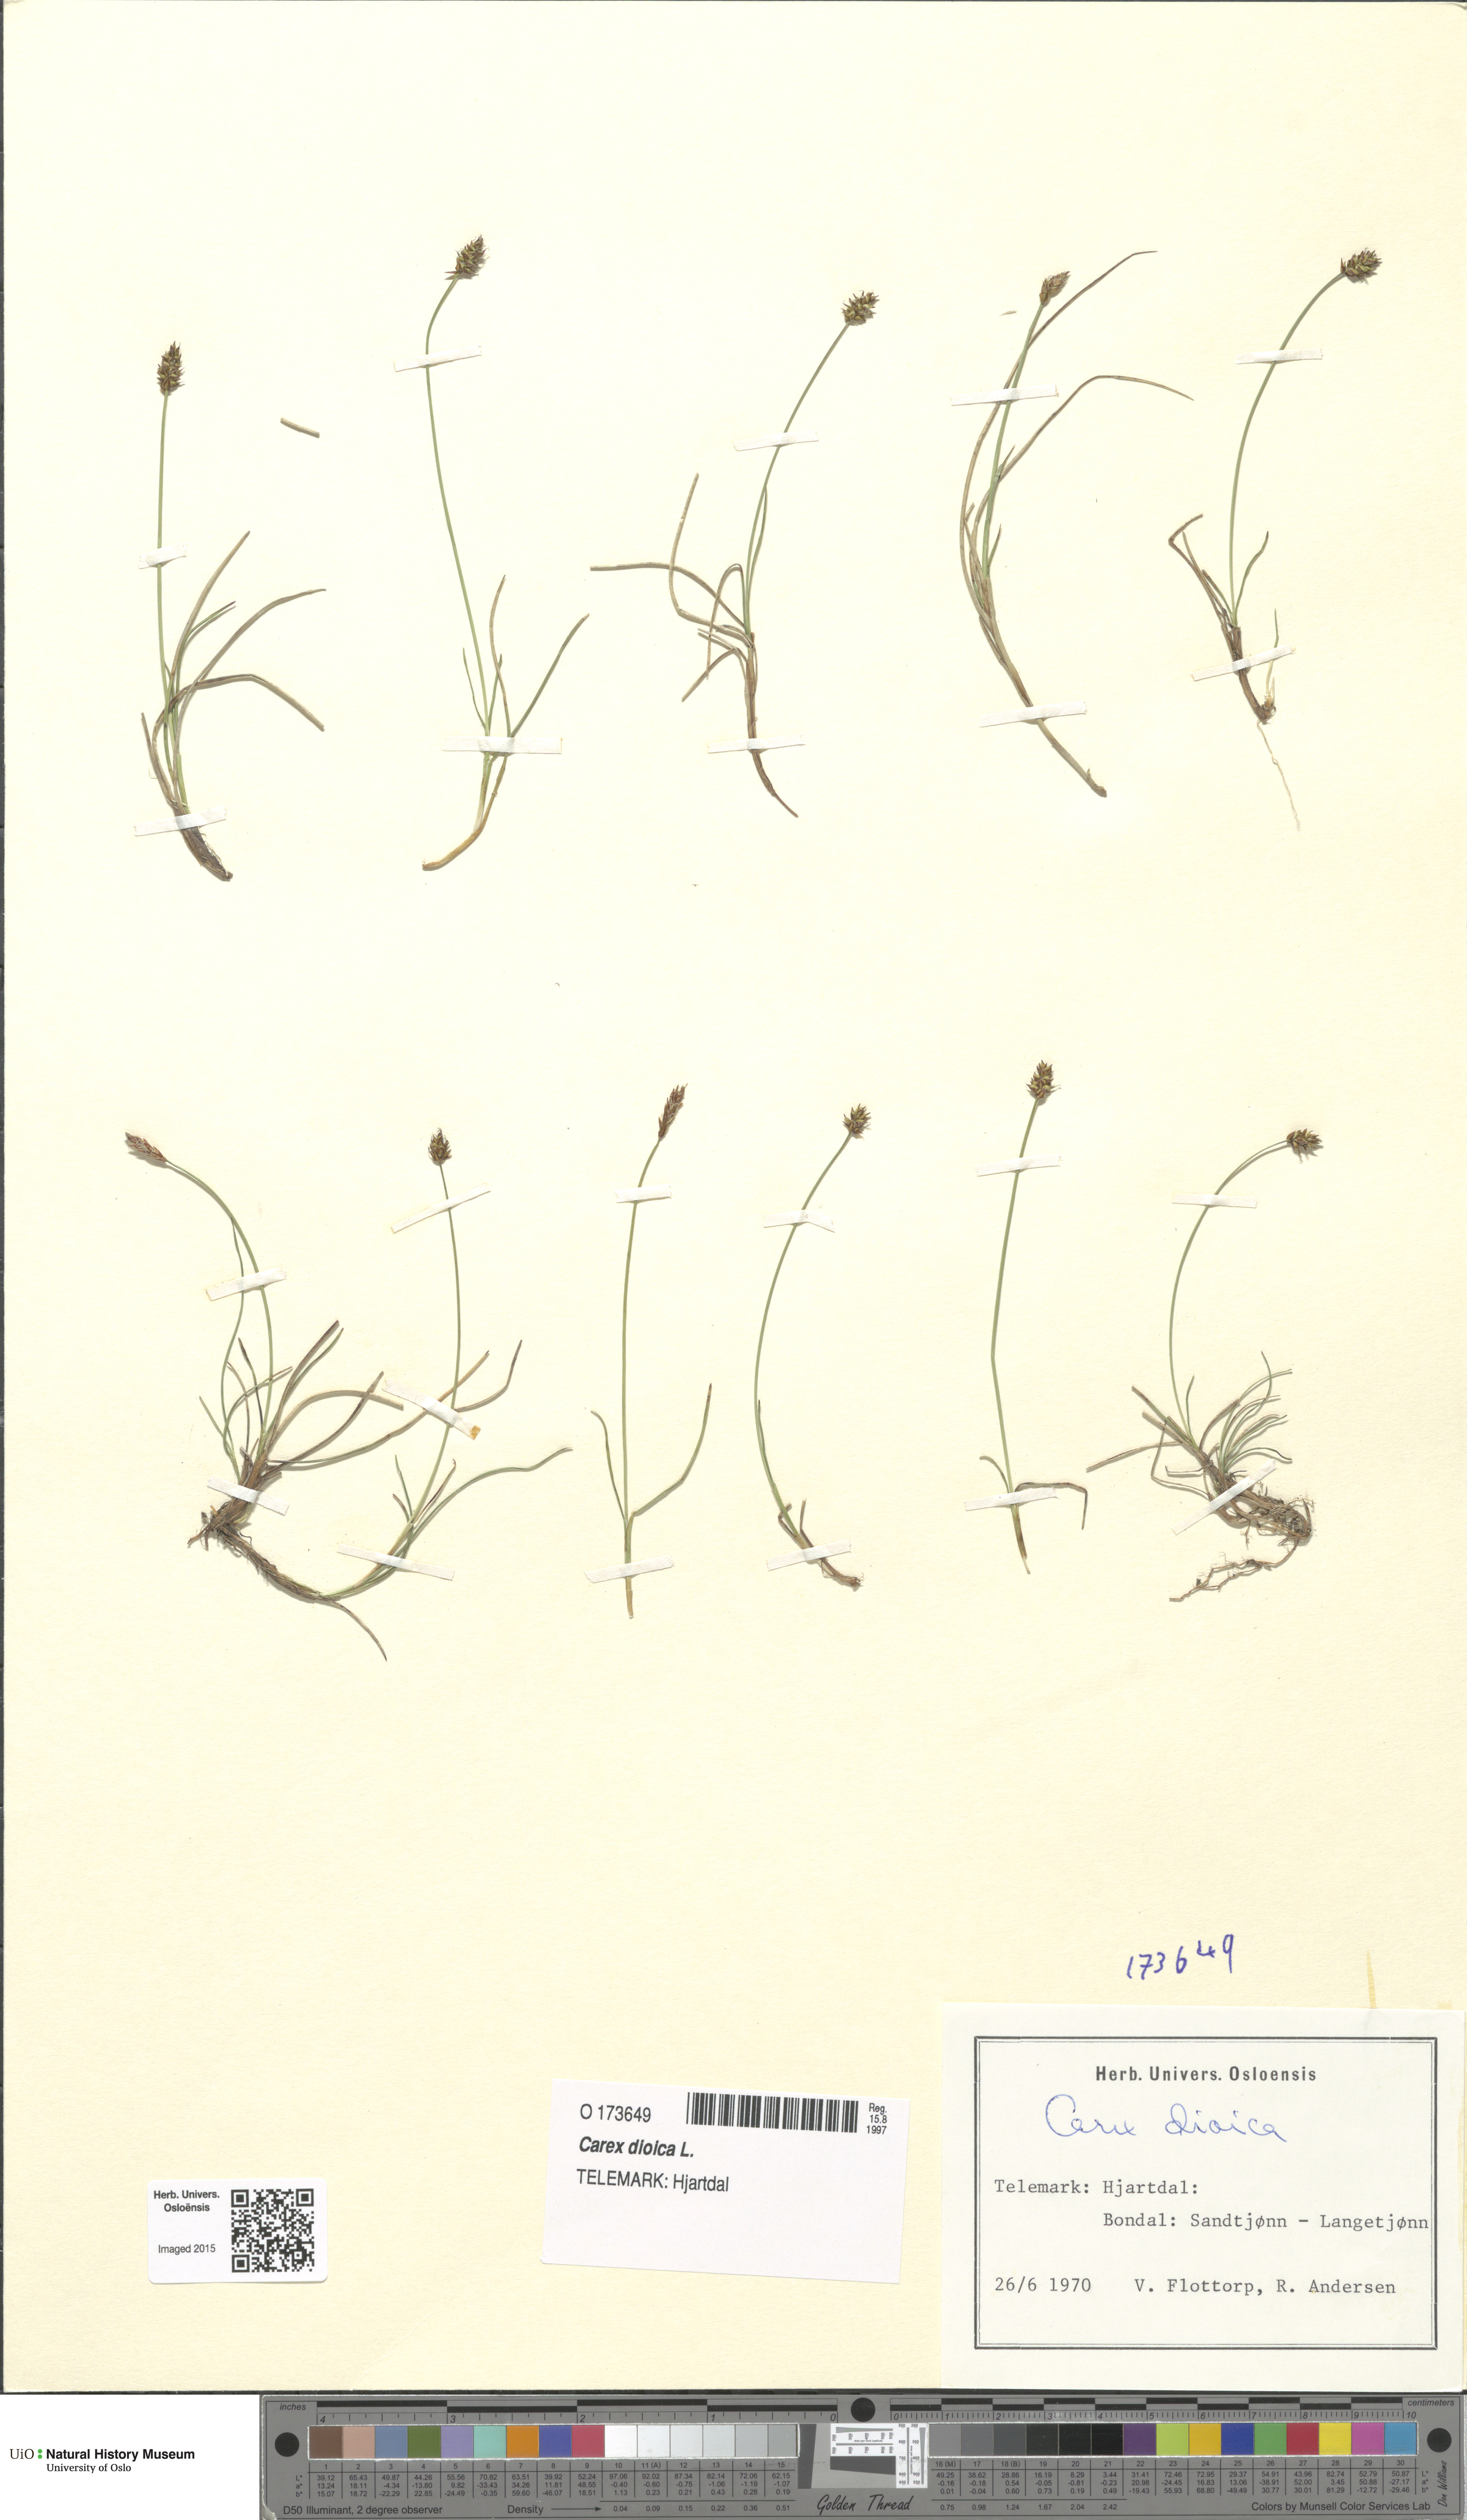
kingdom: Plantae
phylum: Tracheophyta
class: Liliopsida
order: Poales
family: Cyperaceae
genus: Carex
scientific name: Carex dioica
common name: Dioecious sedge
